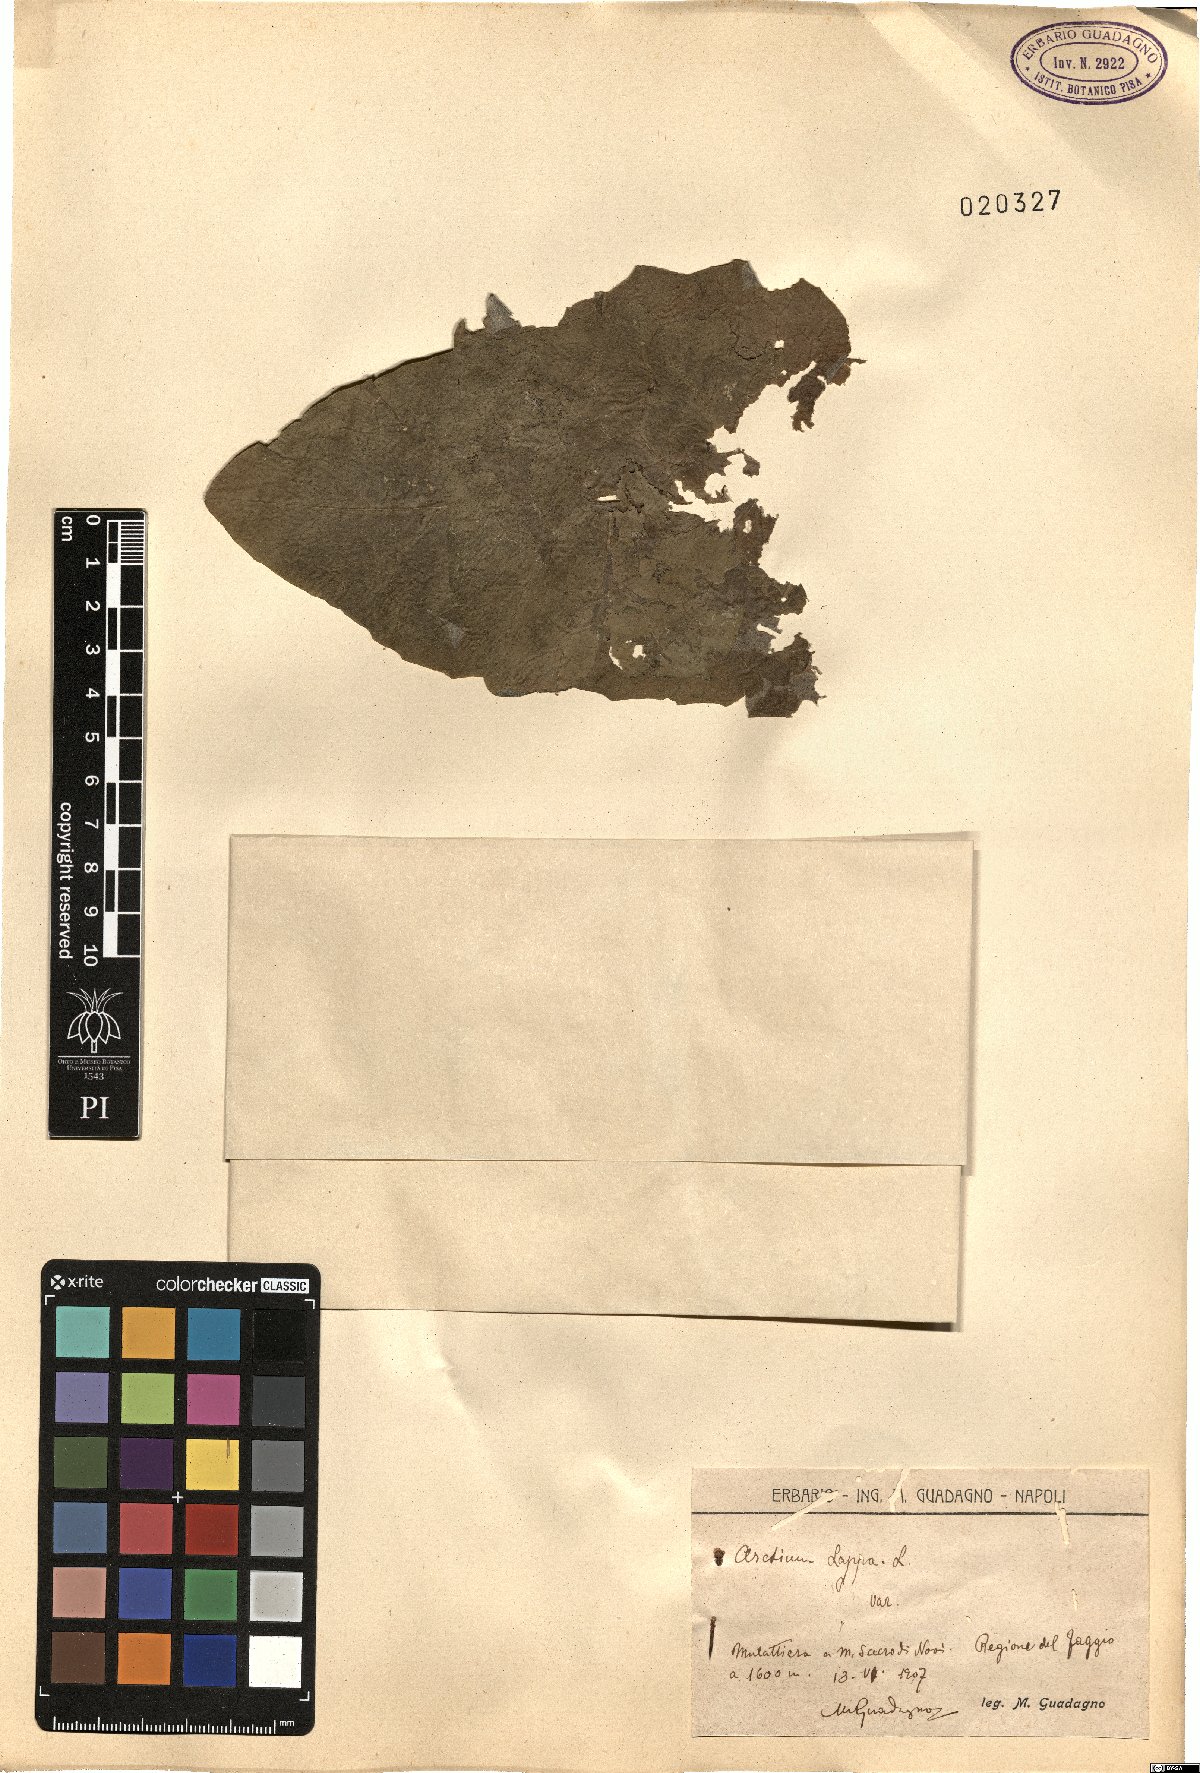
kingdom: Plantae
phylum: Tracheophyta
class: Magnoliopsida
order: Asterales
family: Asteraceae
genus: Arctium
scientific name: Arctium lappa
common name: Greater burdock
